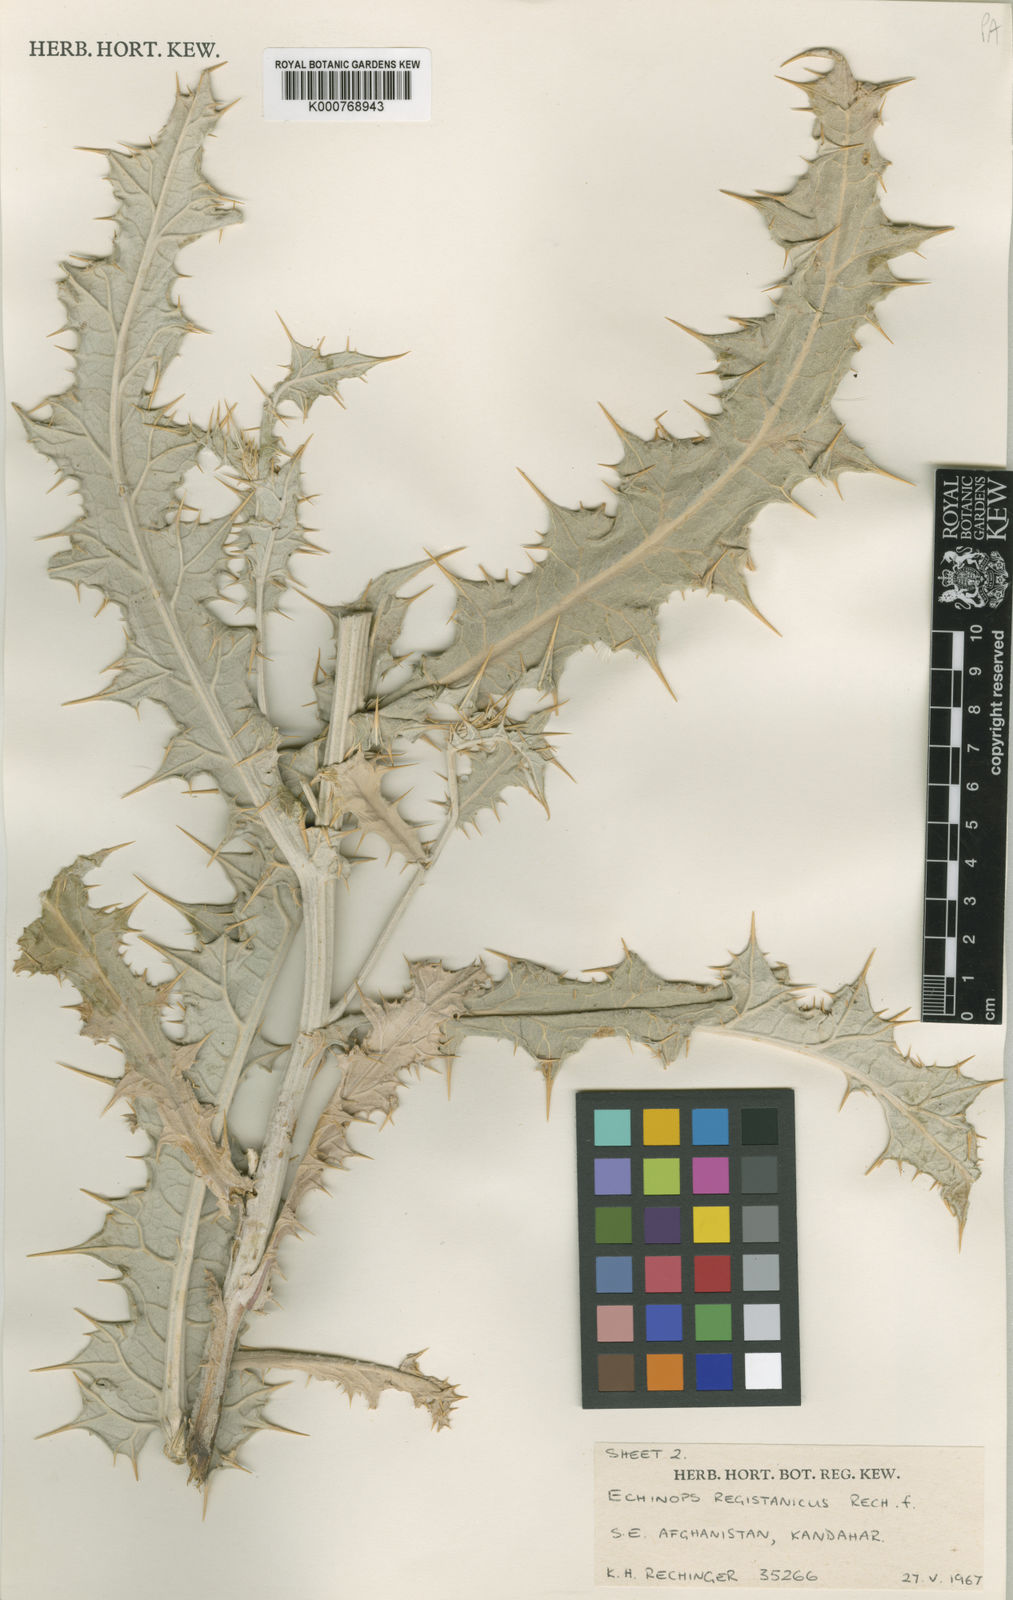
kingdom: Plantae
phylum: Tracheophyta
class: Magnoliopsida
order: Asterales
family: Asteraceae
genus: Echinops
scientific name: Echinops registanicus
